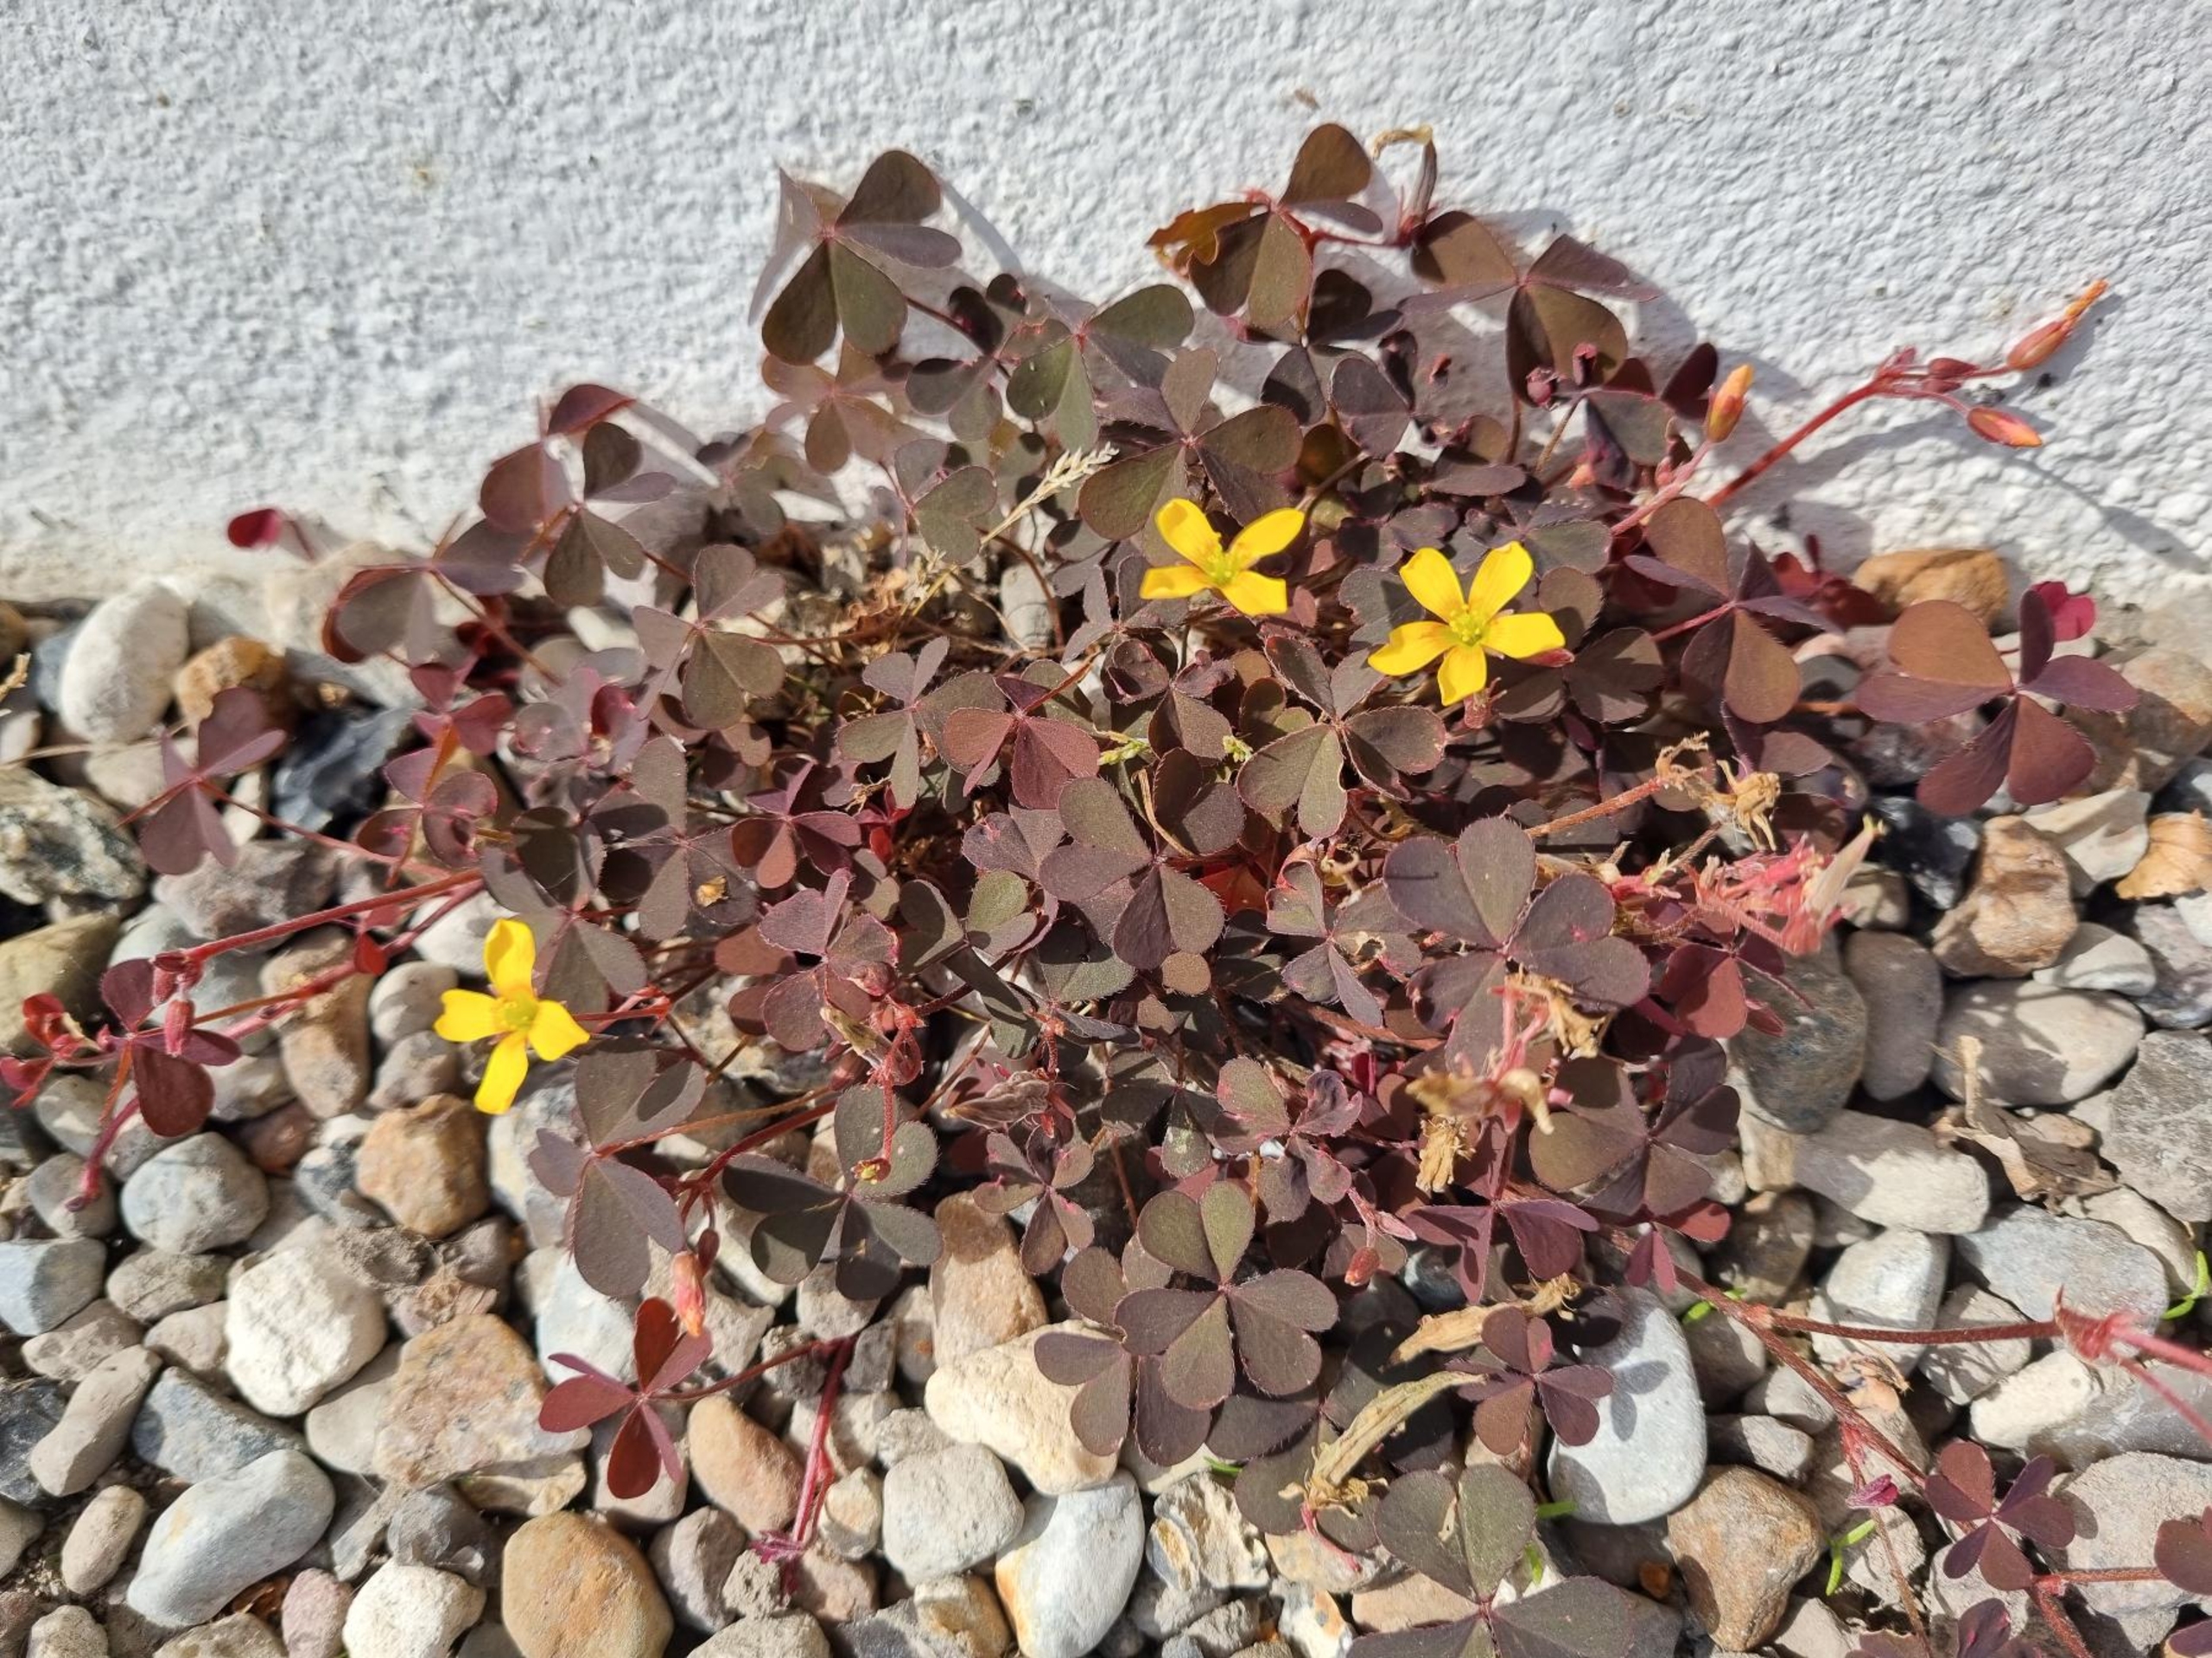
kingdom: Plantae
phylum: Tracheophyta
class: Magnoliopsida
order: Oxalidales
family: Oxalidaceae
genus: Oxalis
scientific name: Oxalis corniculata
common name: Nedliggende surkløver
